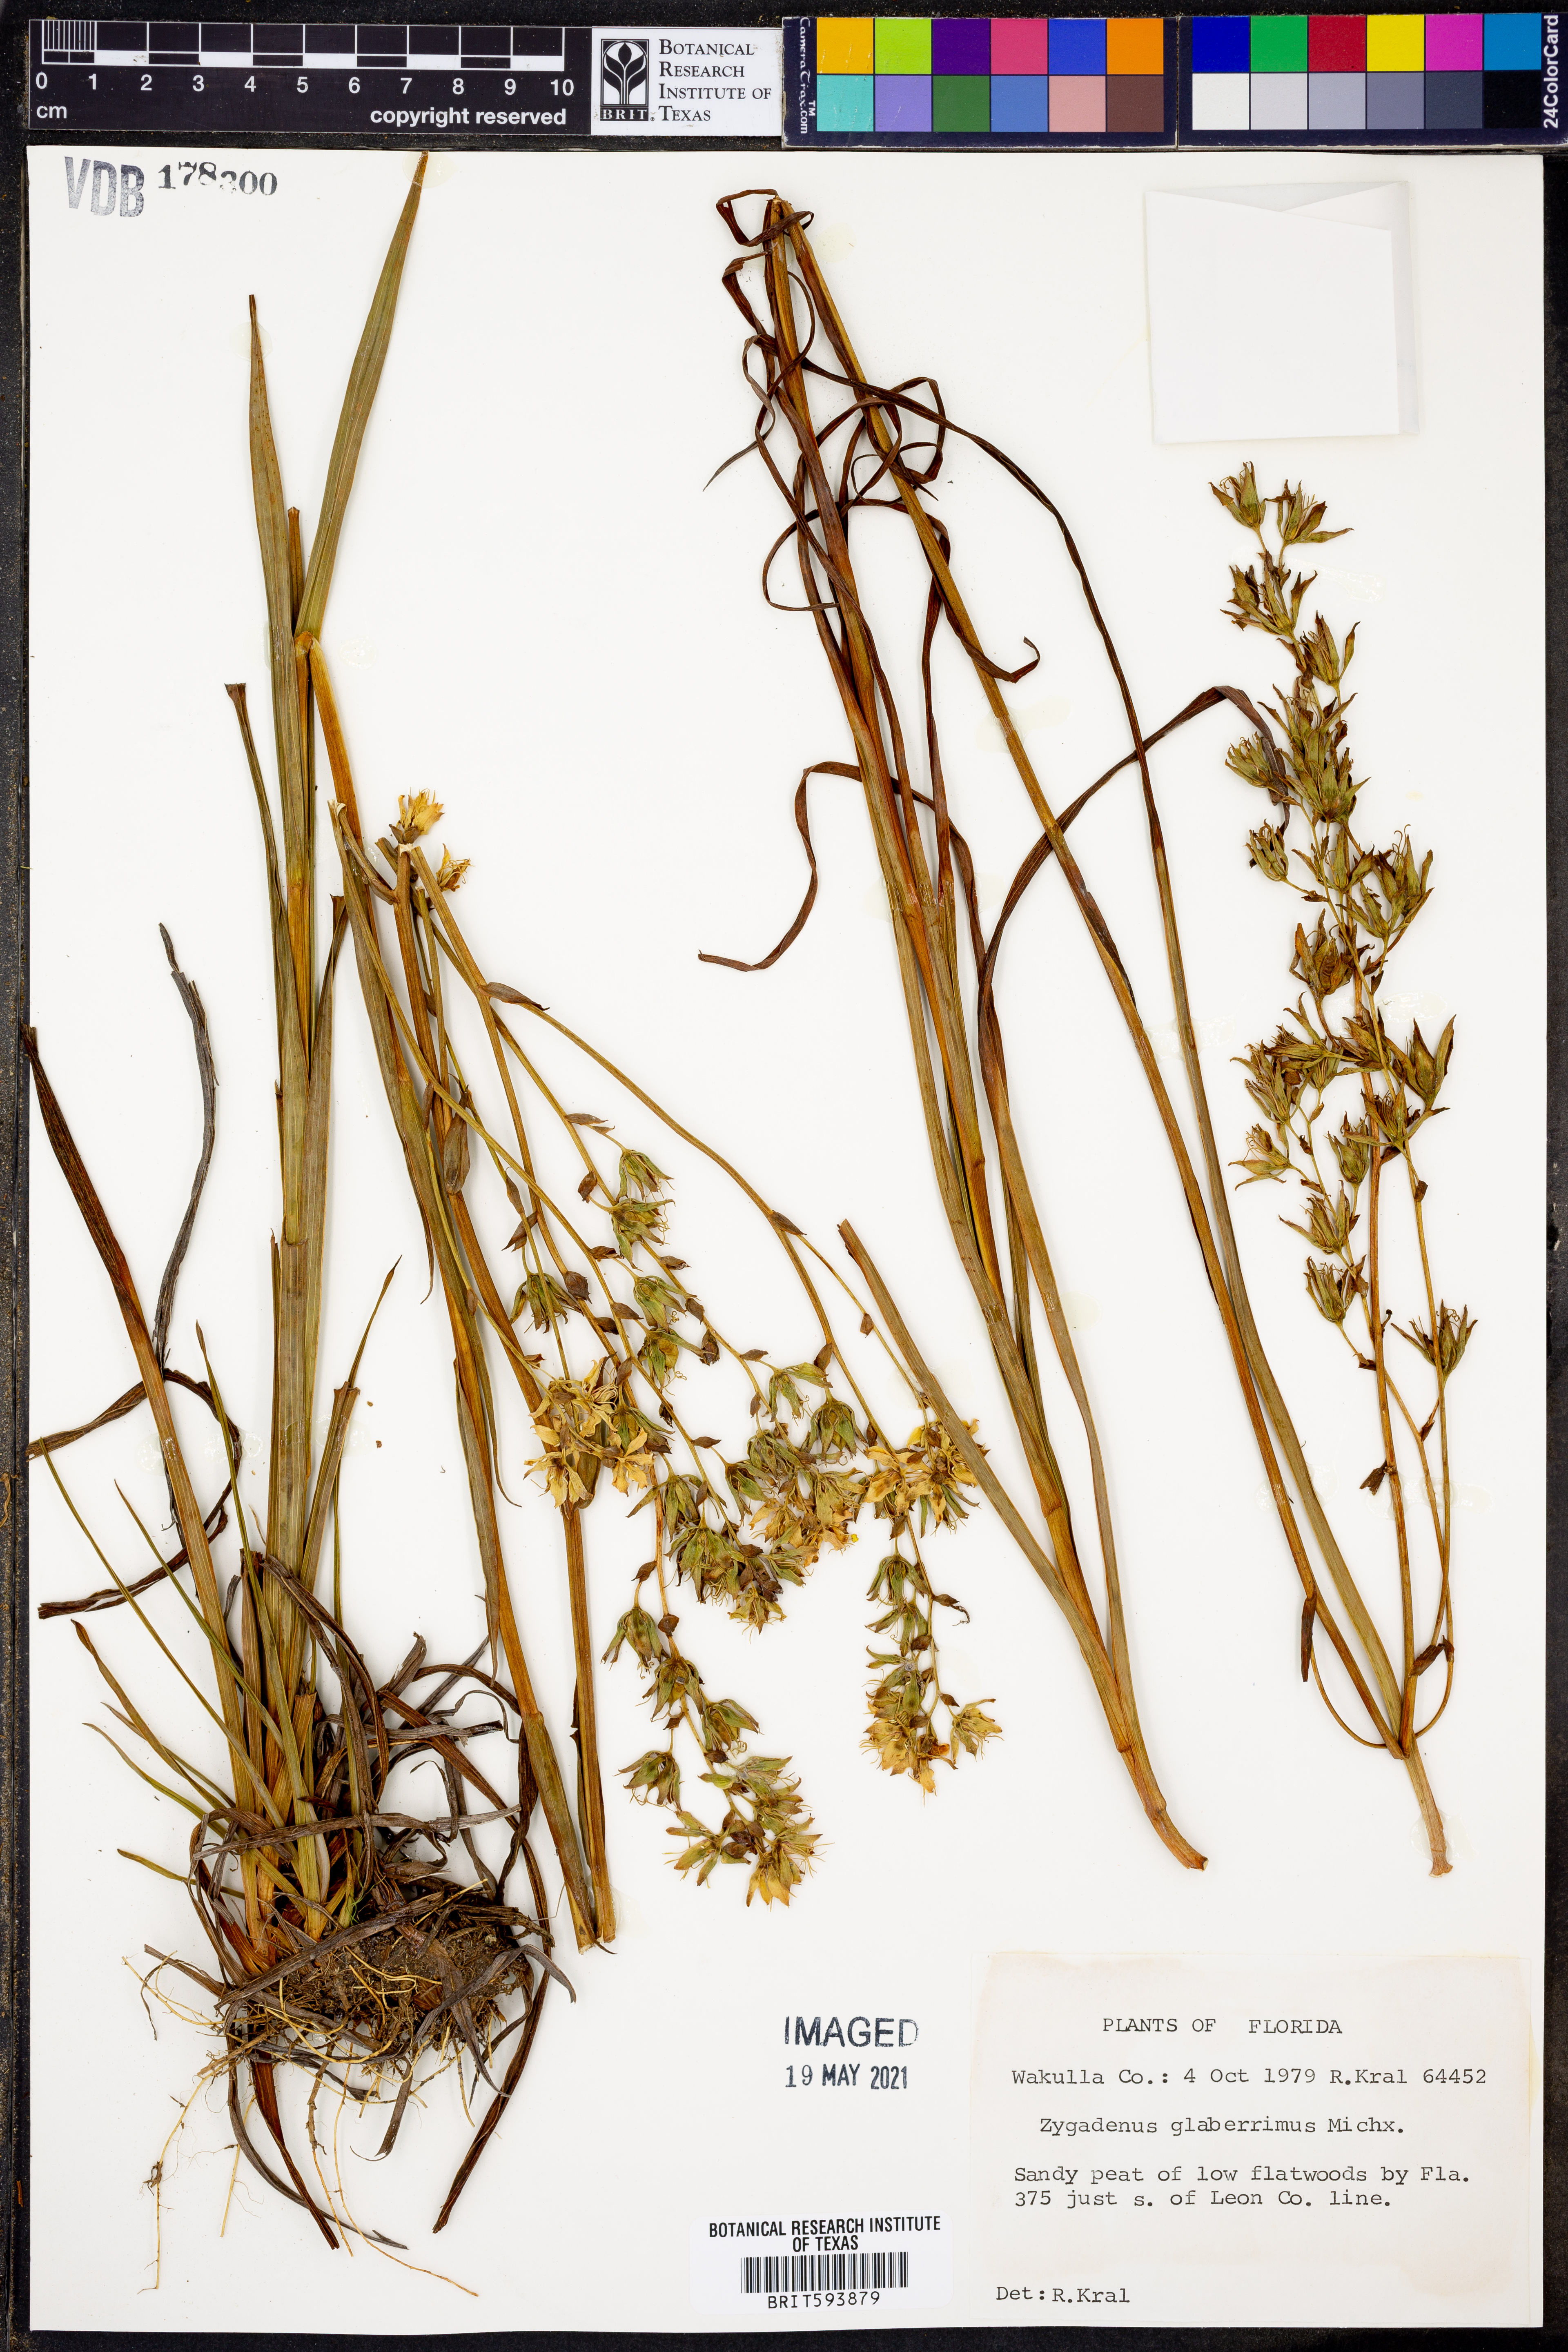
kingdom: Plantae
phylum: Tracheophyta
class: Liliopsida
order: Liliales
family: Melanthiaceae
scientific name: Melanthiaceae
